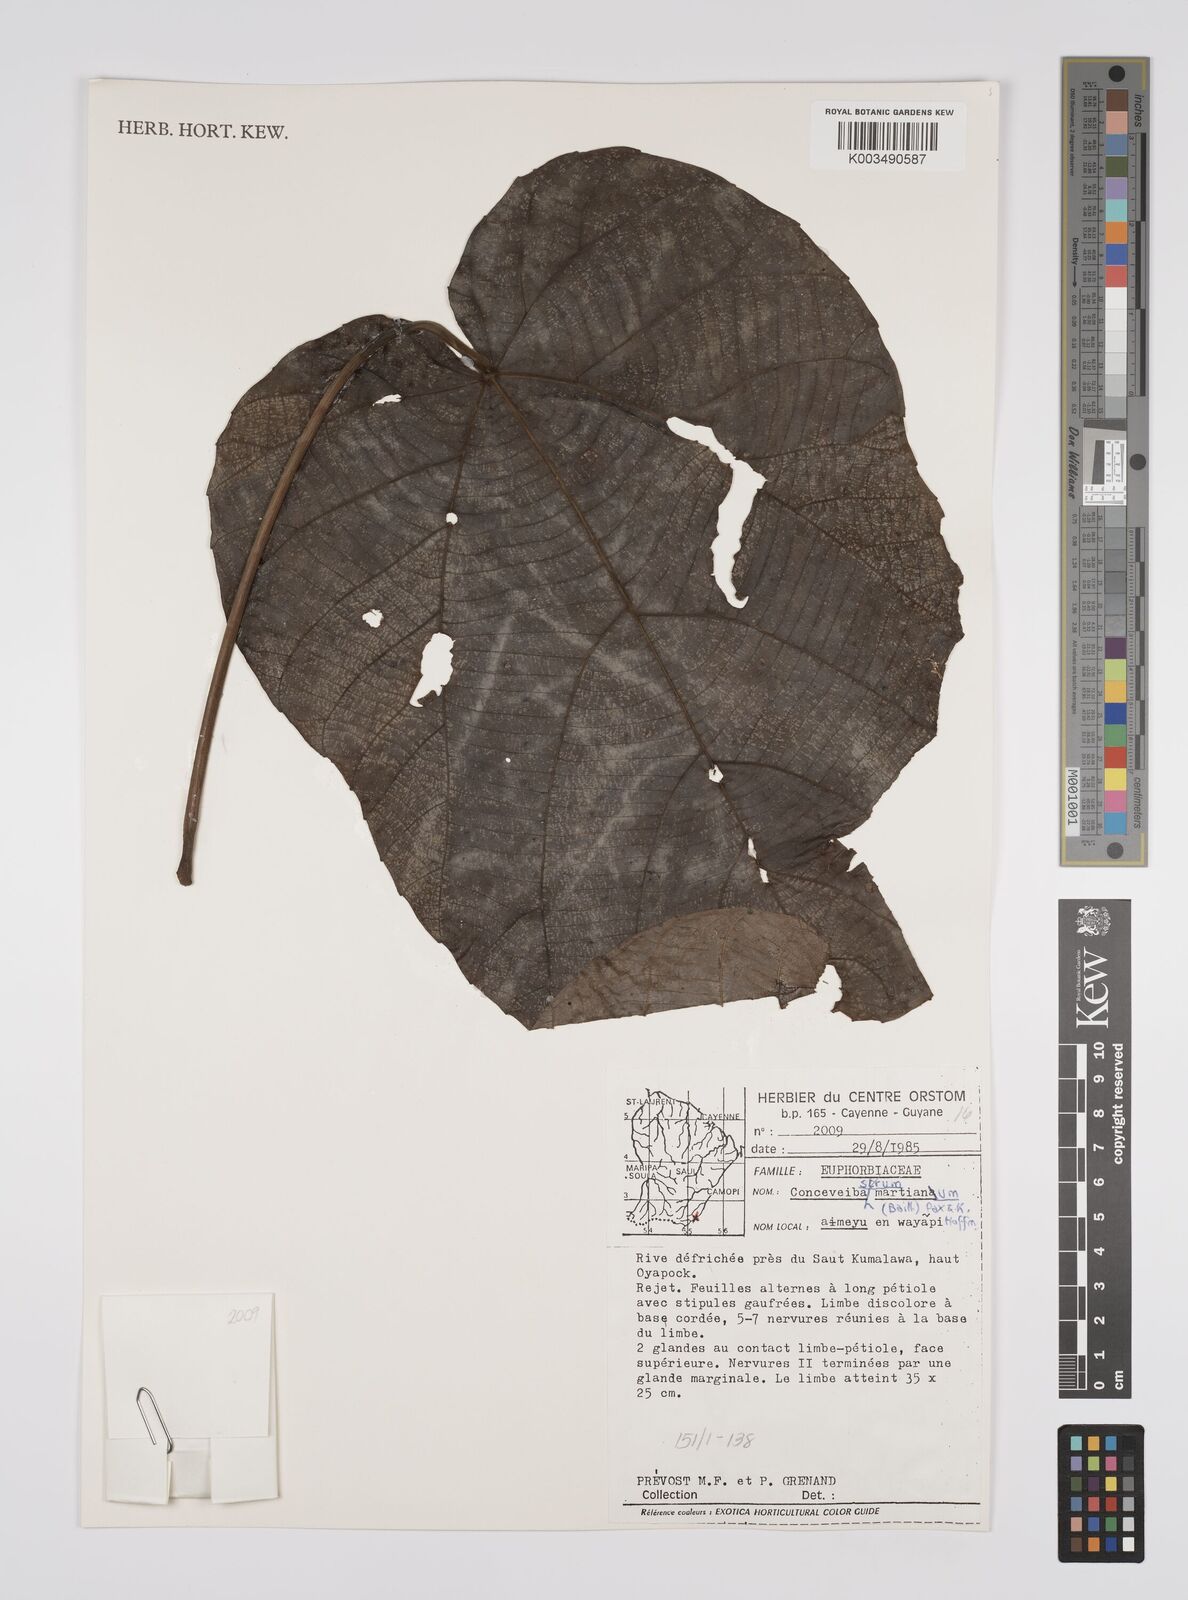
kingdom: Plantae
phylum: Tracheophyta
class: Magnoliopsida
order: Malpighiales
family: Euphorbiaceae
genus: Conceveiba
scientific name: Conceveiba martiana
